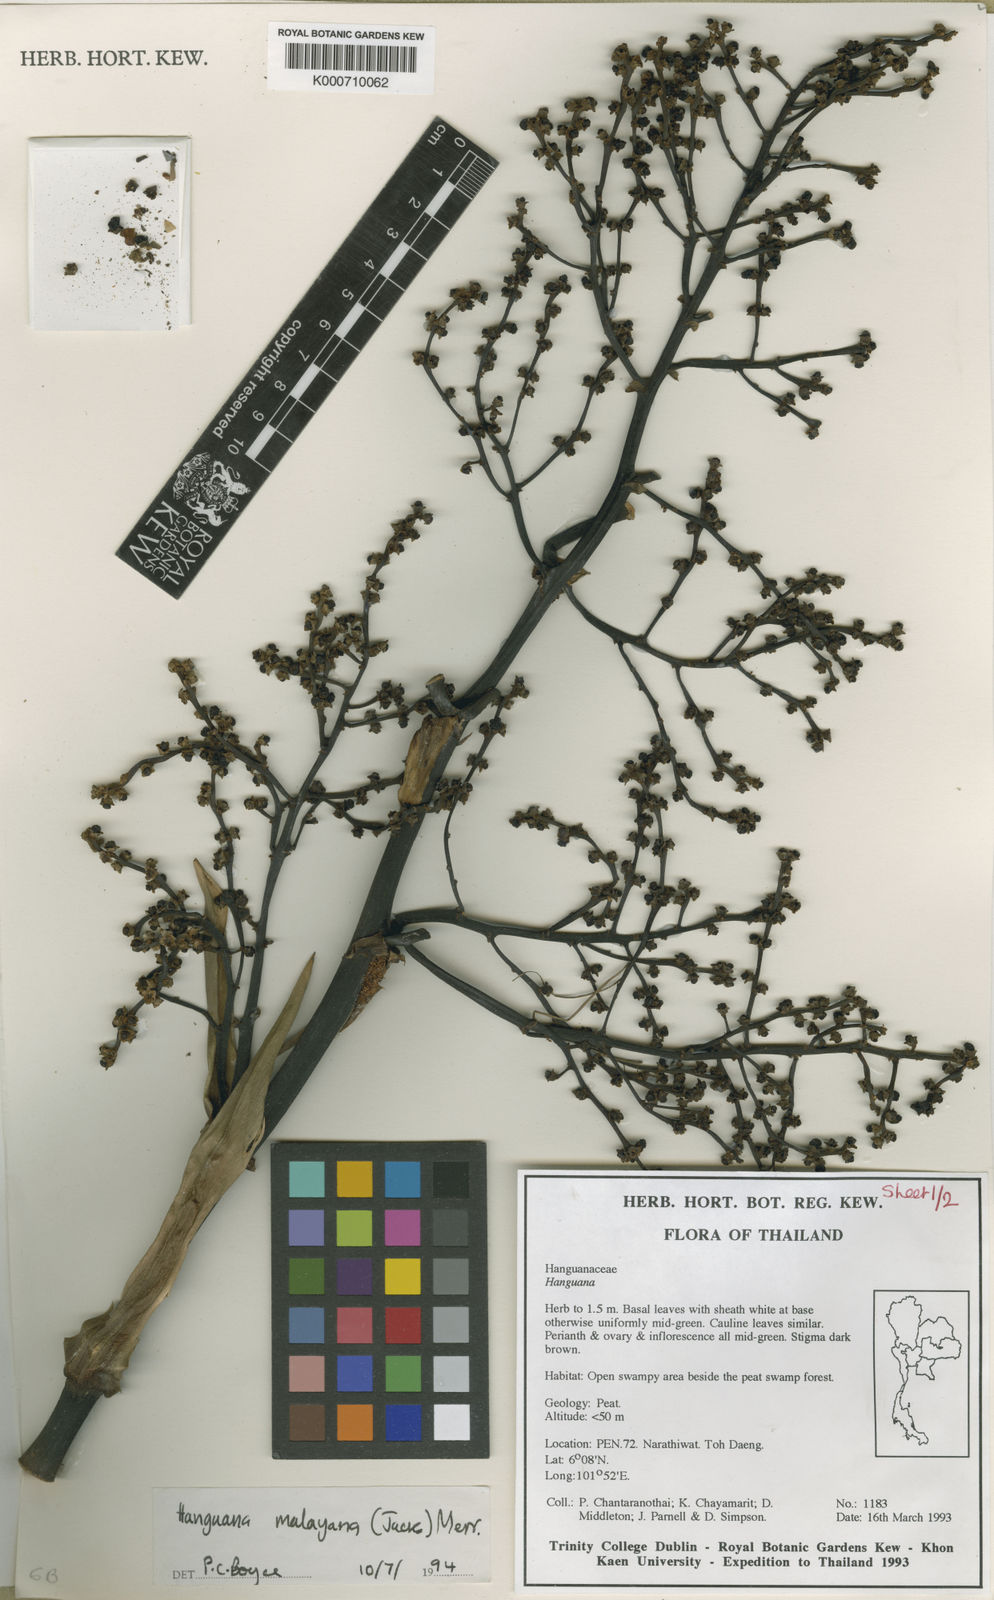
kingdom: Plantae
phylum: Tracheophyta
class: Liliopsida
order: Commelinales
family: Hanguanaceae
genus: Hanguana
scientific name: Hanguana malayana
